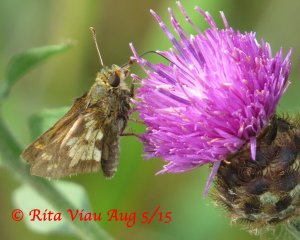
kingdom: Animalia
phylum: Arthropoda
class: Insecta
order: Lepidoptera
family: Hesperiidae
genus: Polites
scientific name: Polites coras
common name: Peck's Skipper
